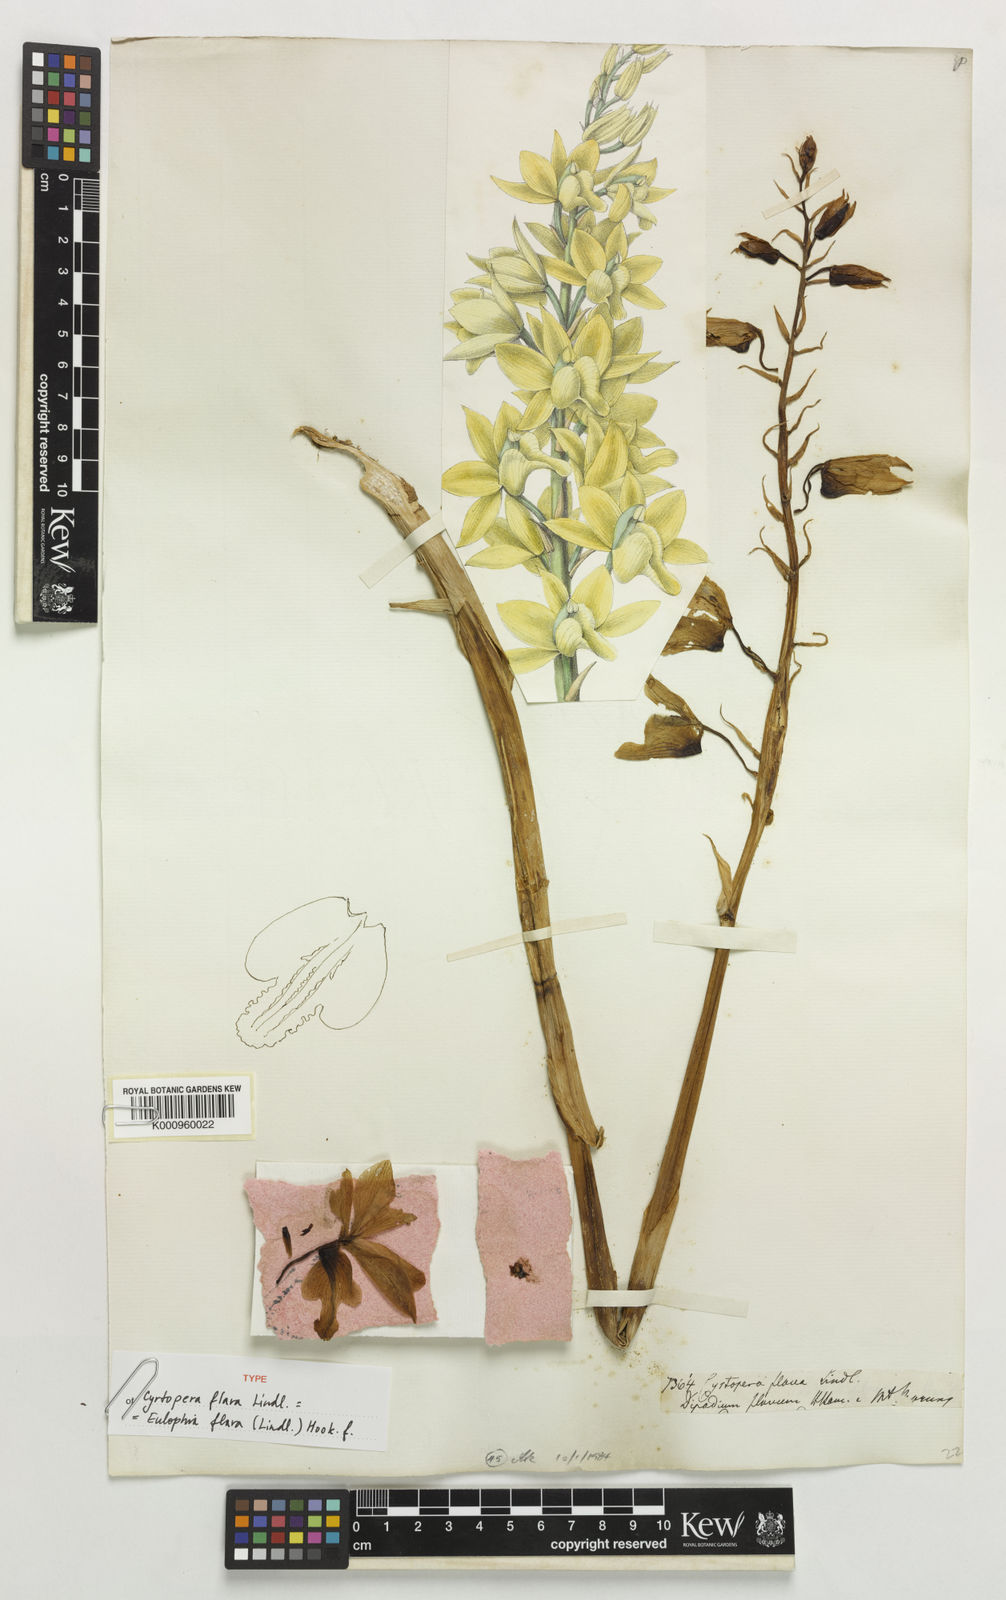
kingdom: Plantae
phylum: Tracheophyta
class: Liliopsida
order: Asparagales
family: Orchidaceae
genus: Eulophia
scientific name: Eulophia flava
